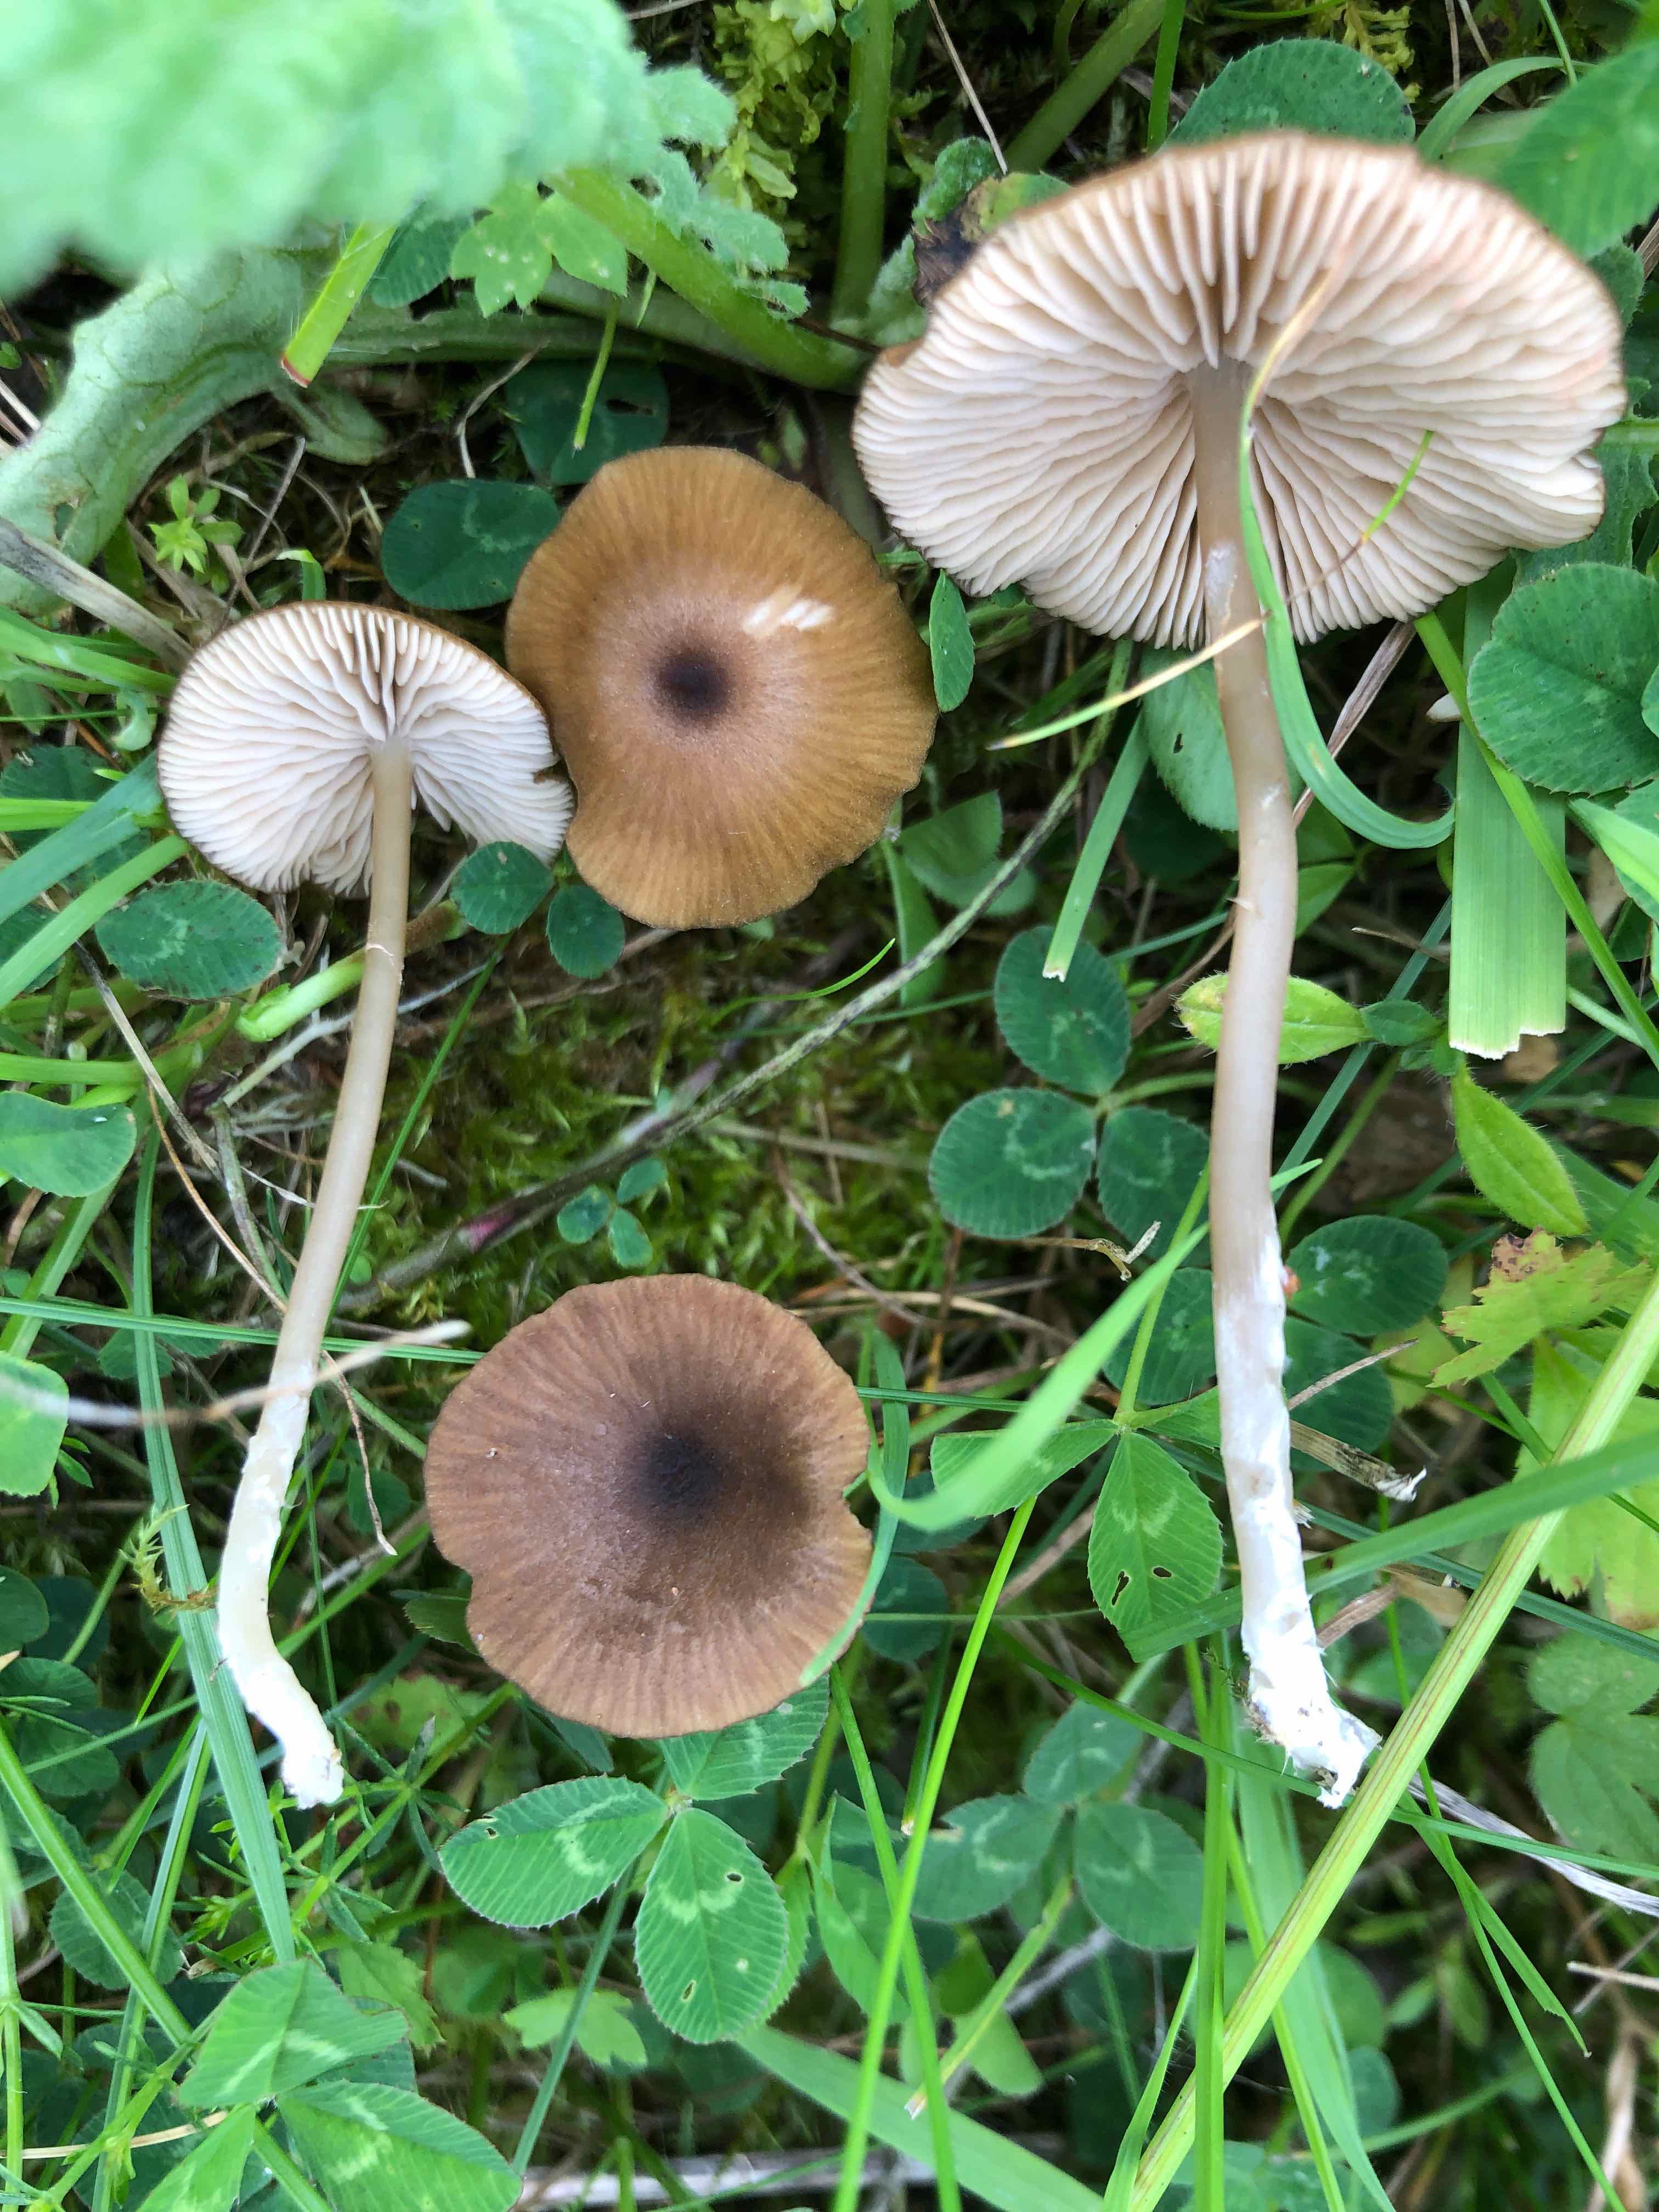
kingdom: Fungi
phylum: Basidiomycota
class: Agaricomycetes
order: Agaricales
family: Entolomataceae
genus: Entoloma
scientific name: Entoloma longistriatum
